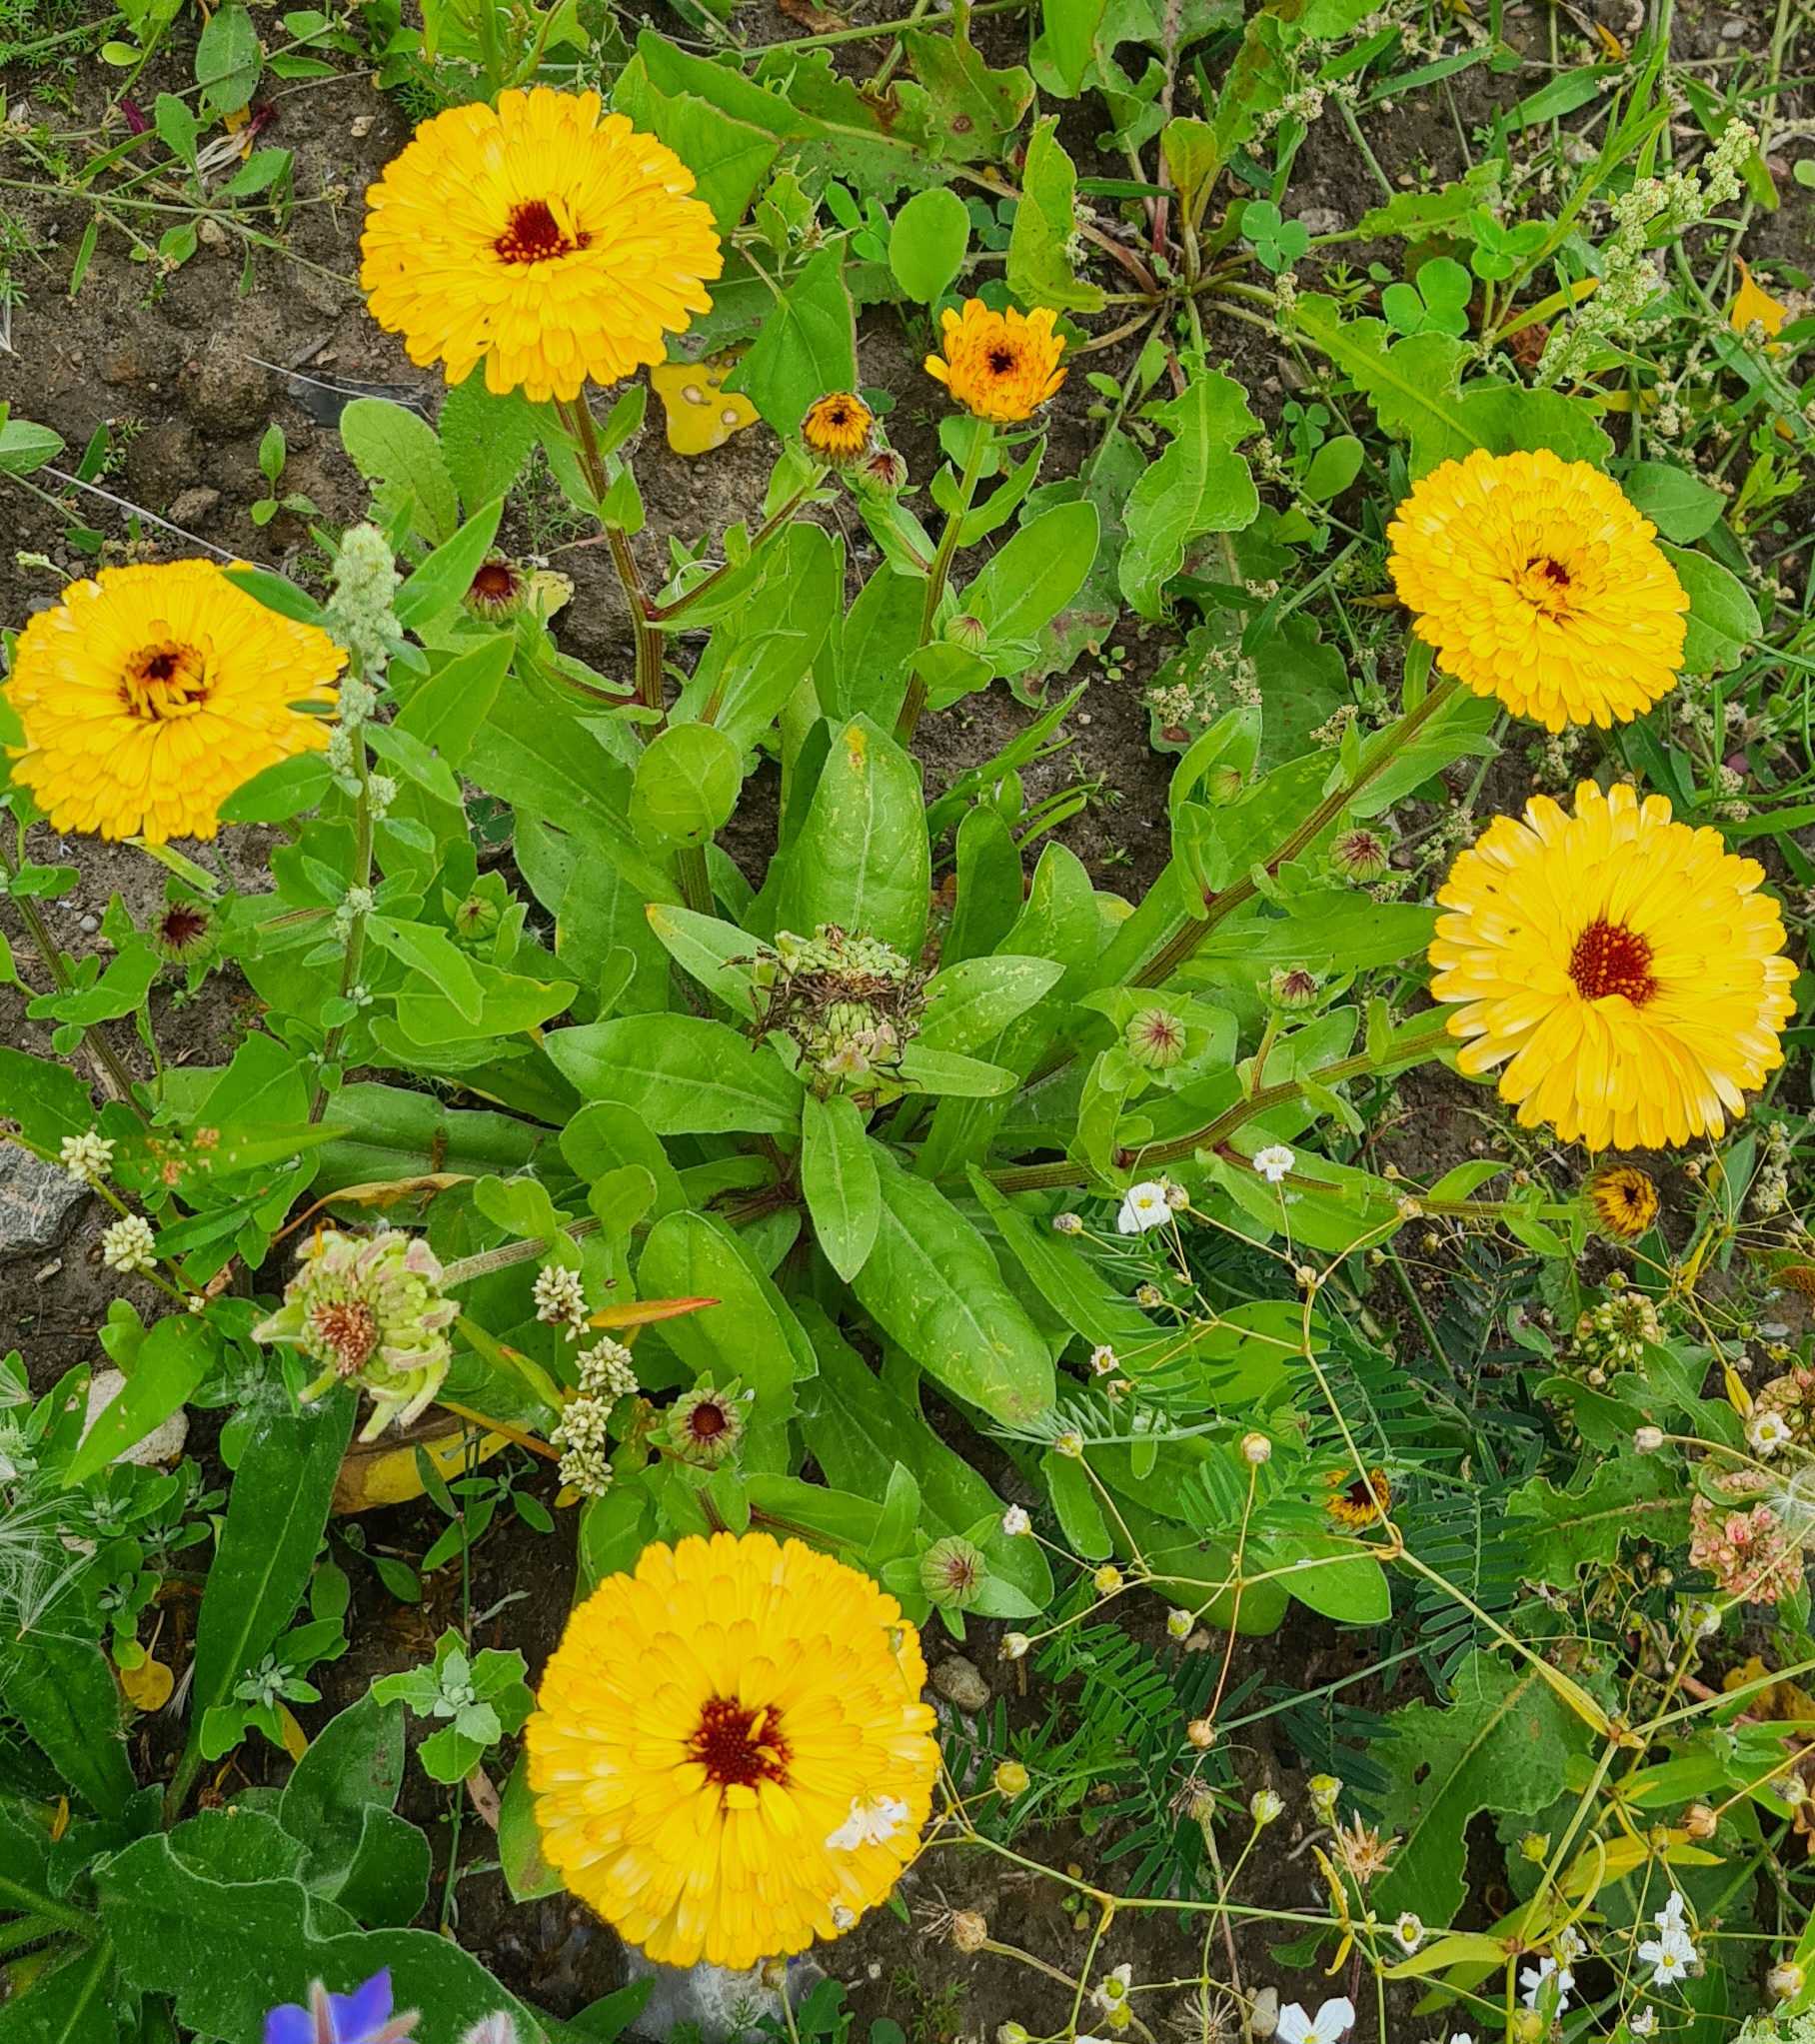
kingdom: Plantae
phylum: Tracheophyta
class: Magnoliopsida
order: Asterales
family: Asteraceae
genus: Calendula
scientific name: Calendula officinalis
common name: Have-morgenfrue
